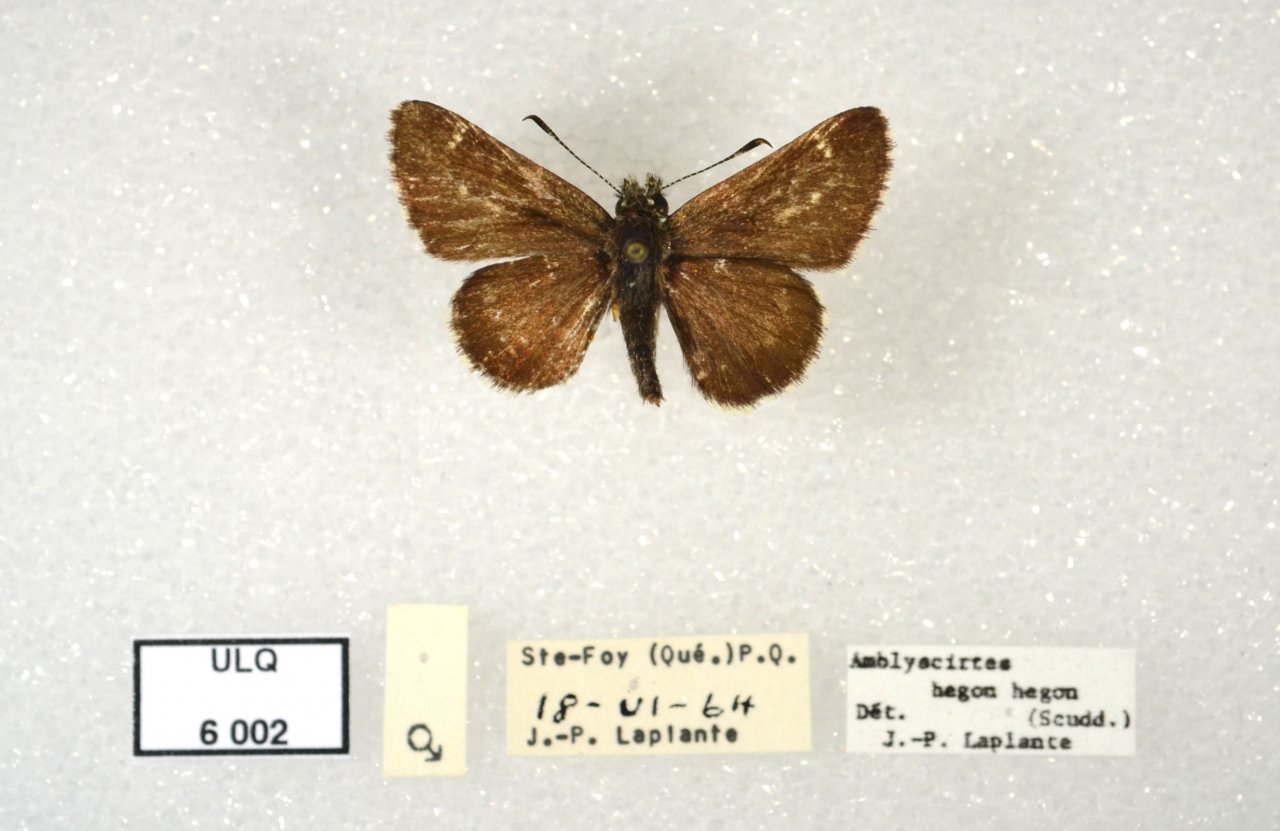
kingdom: Animalia
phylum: Arthropoda
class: Insecta
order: Lepidoptera
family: Hesperiidae
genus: Mastor
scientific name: Mastor vialis
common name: Common Roadside-Skipper
